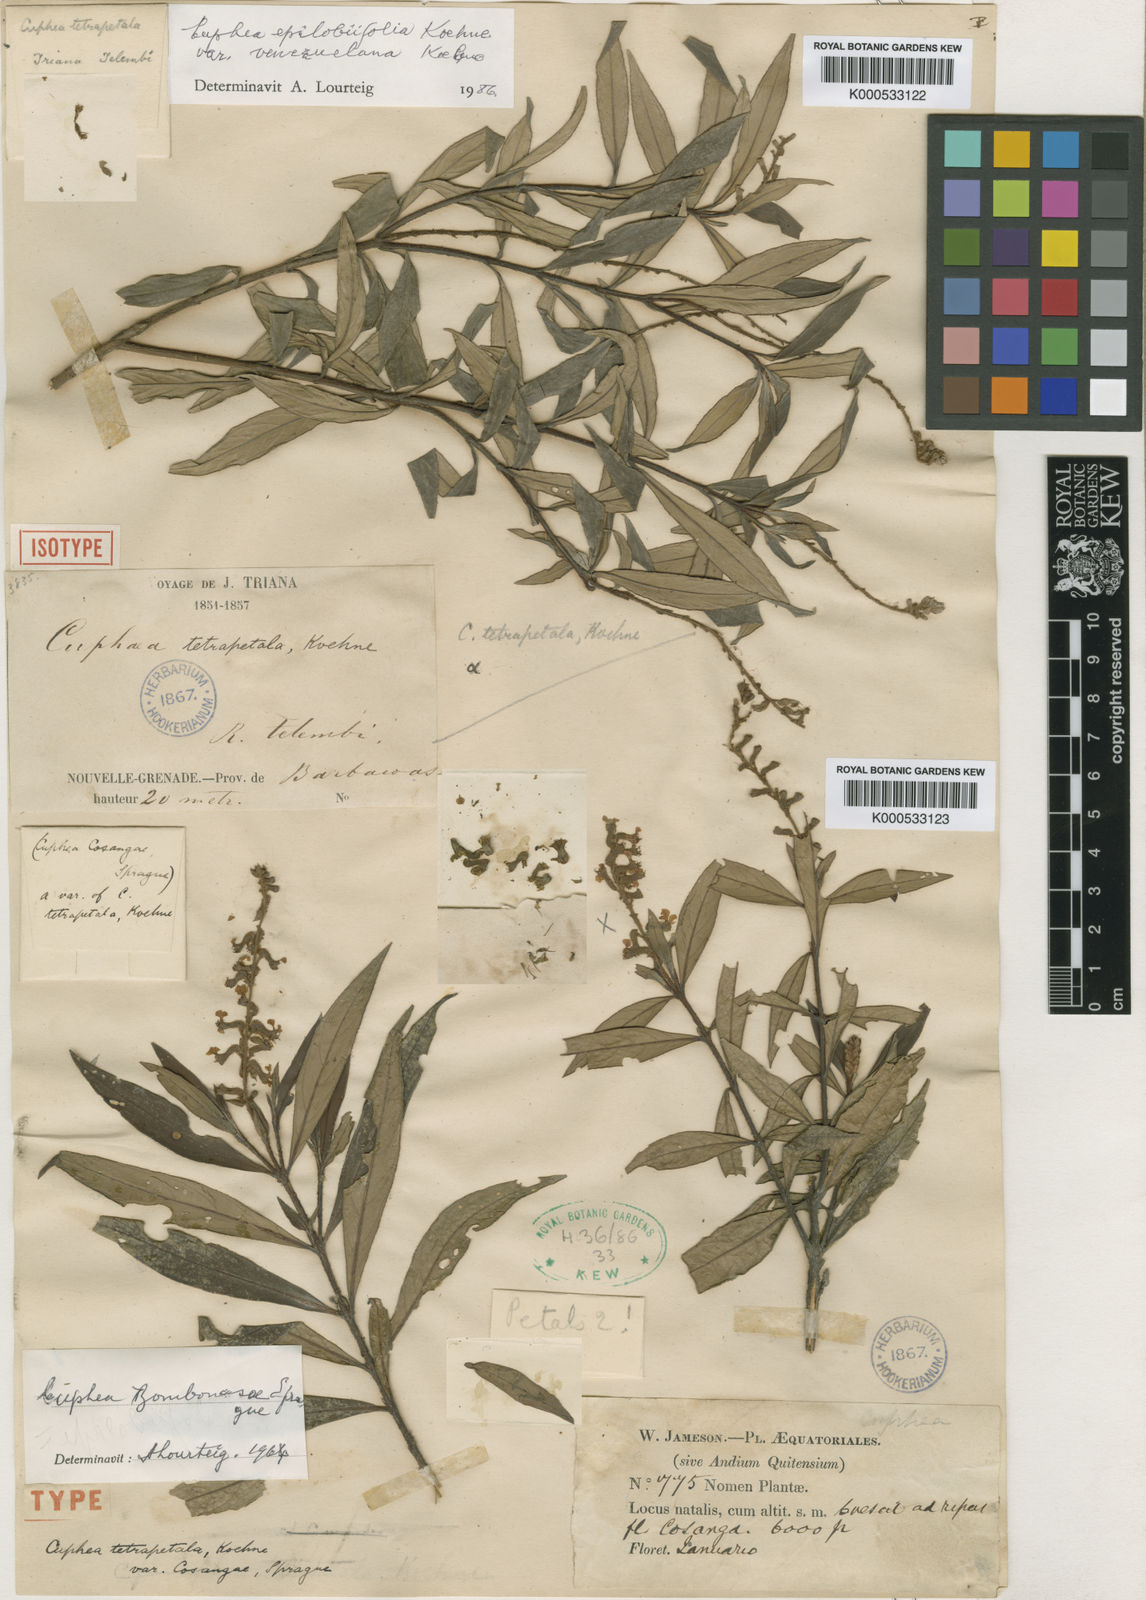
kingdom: Plantae
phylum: Tracheophyta
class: Magnoliopsida
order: Myrtales
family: Lythraceae
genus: Cuphea
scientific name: Cuphea bombonasae
